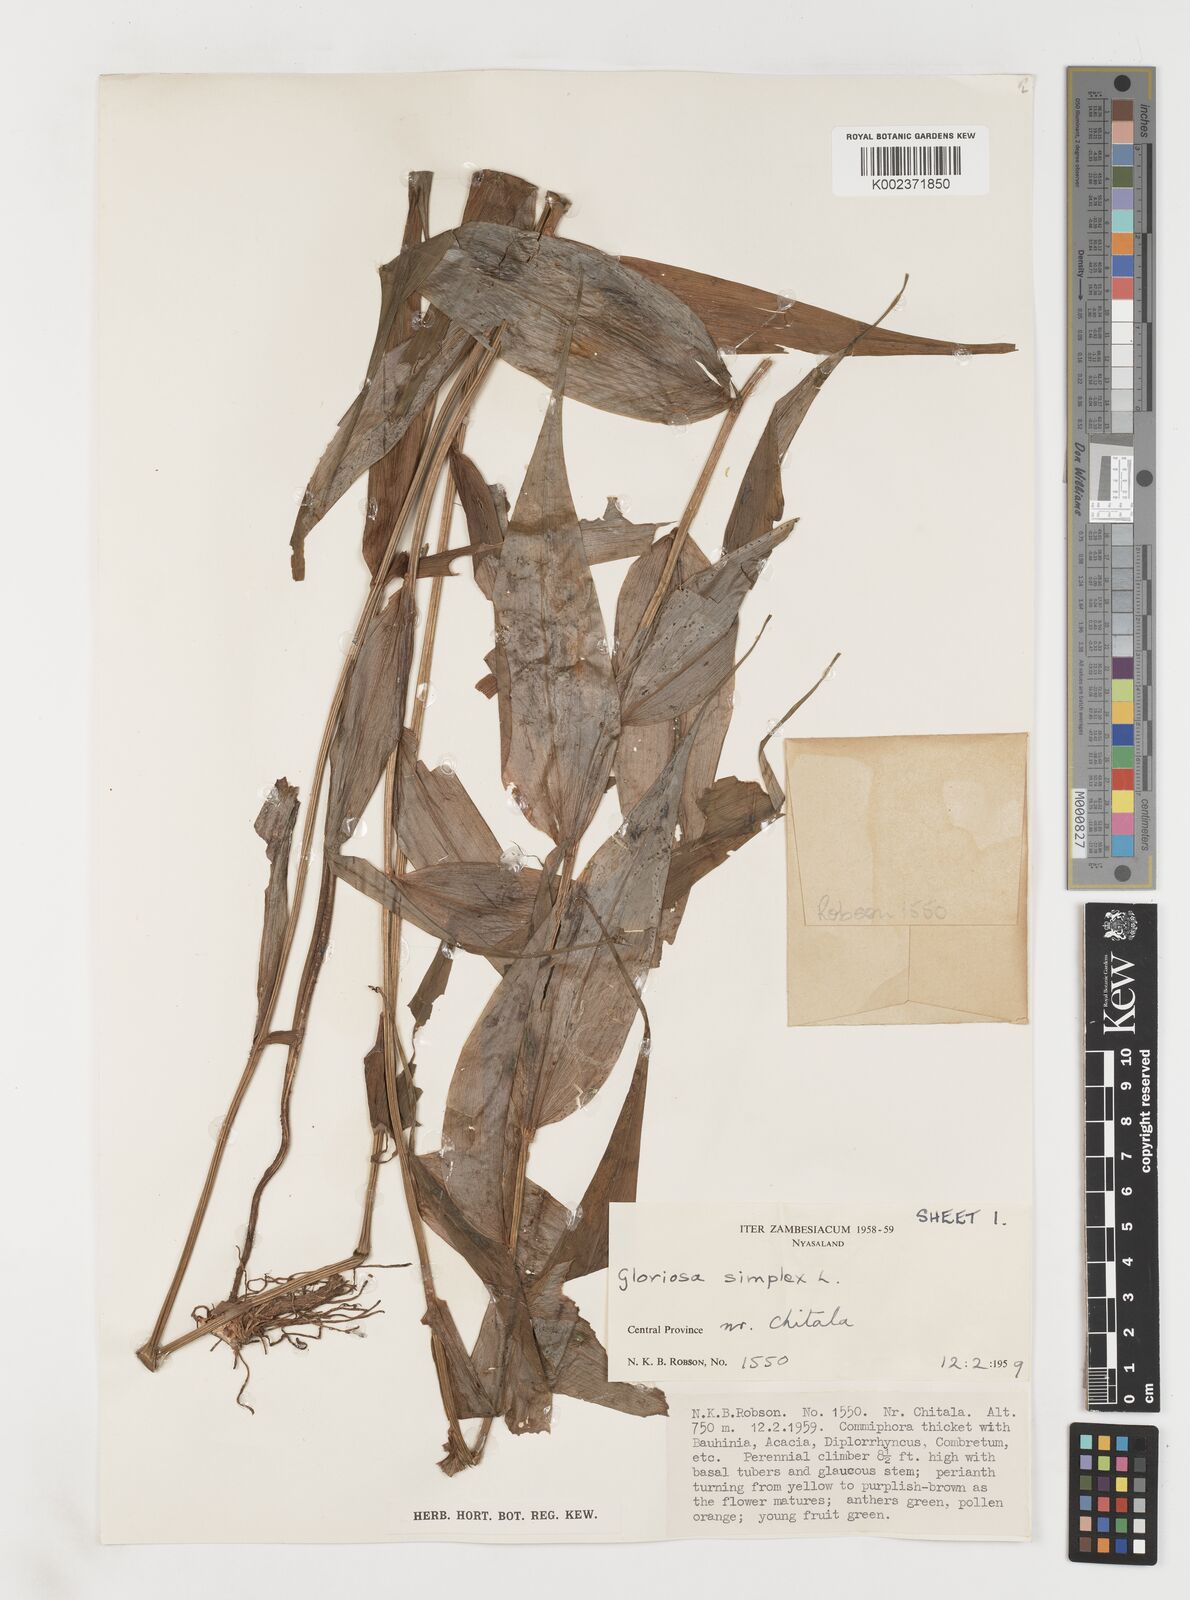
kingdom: Plantae
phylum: Tracheophyta
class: Liliopsida
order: Liliales
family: Colchicaceae
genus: Gloriosa
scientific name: Gloriosa simplex
